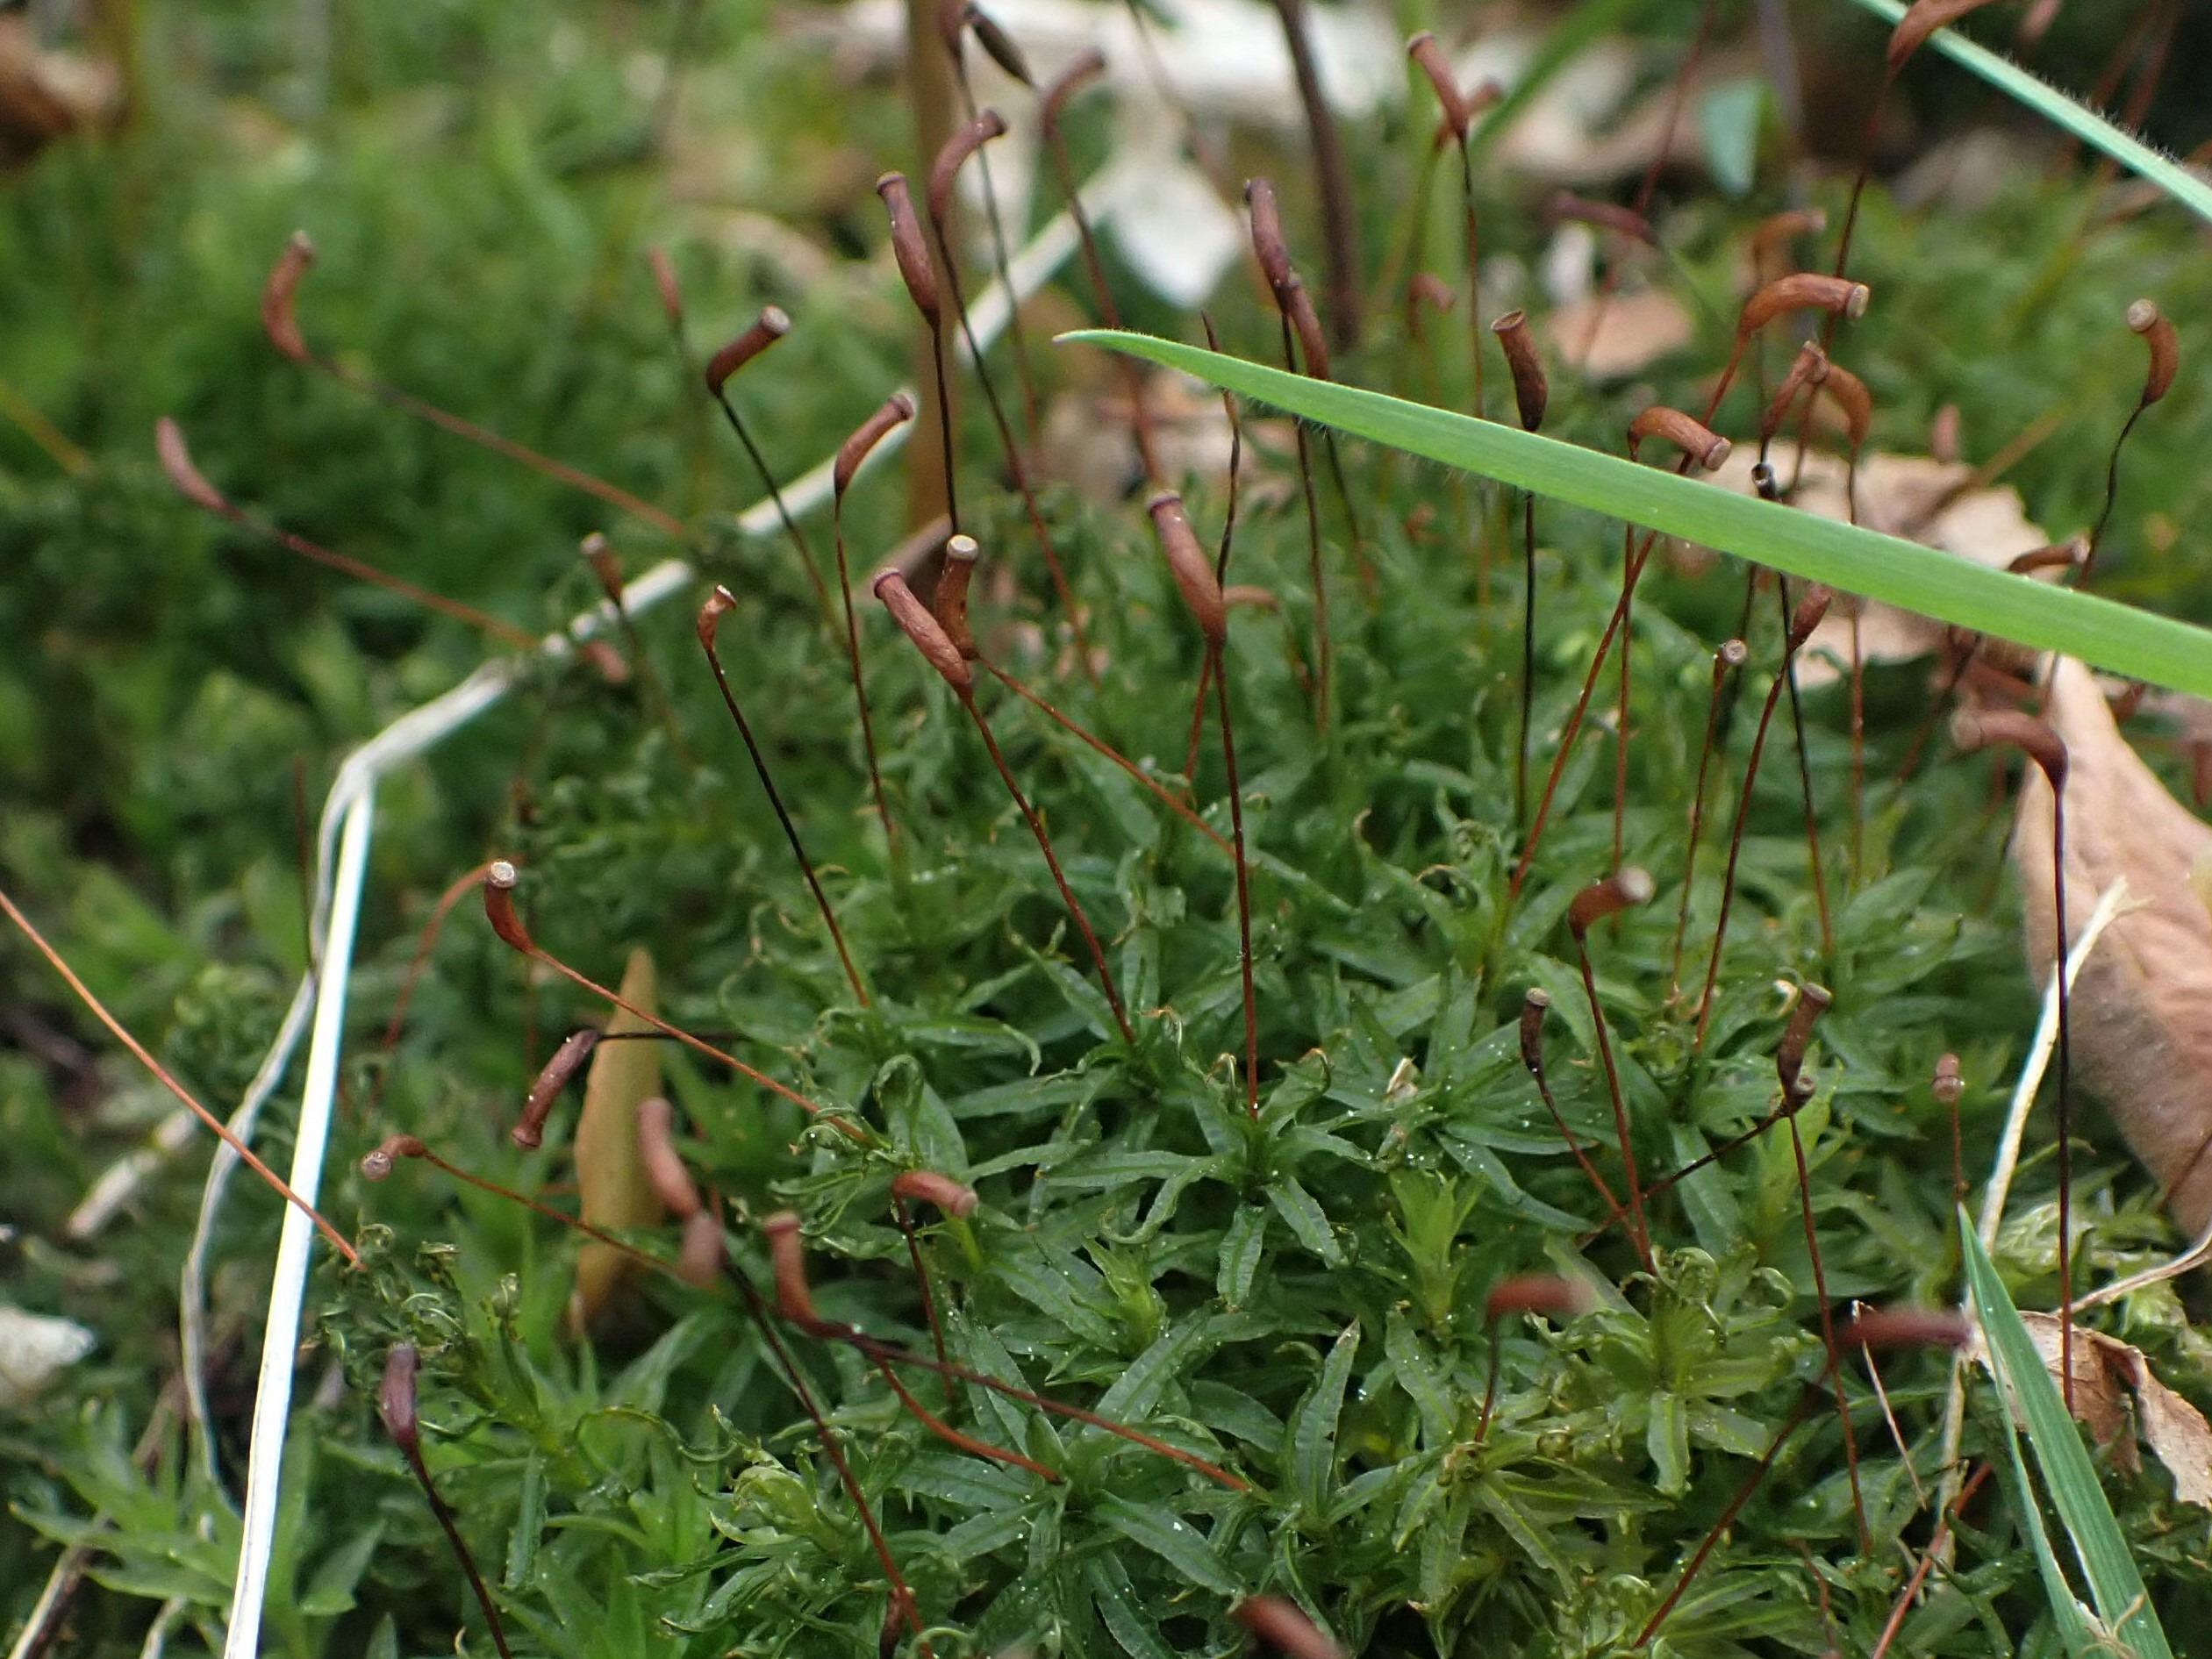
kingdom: Plantae
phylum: Bryophyta
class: Polytrichopsida
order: Polytrichales
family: Polytrichaceae
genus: Atrichum
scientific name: Atrichum undulatum
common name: Bølget katrinemos
